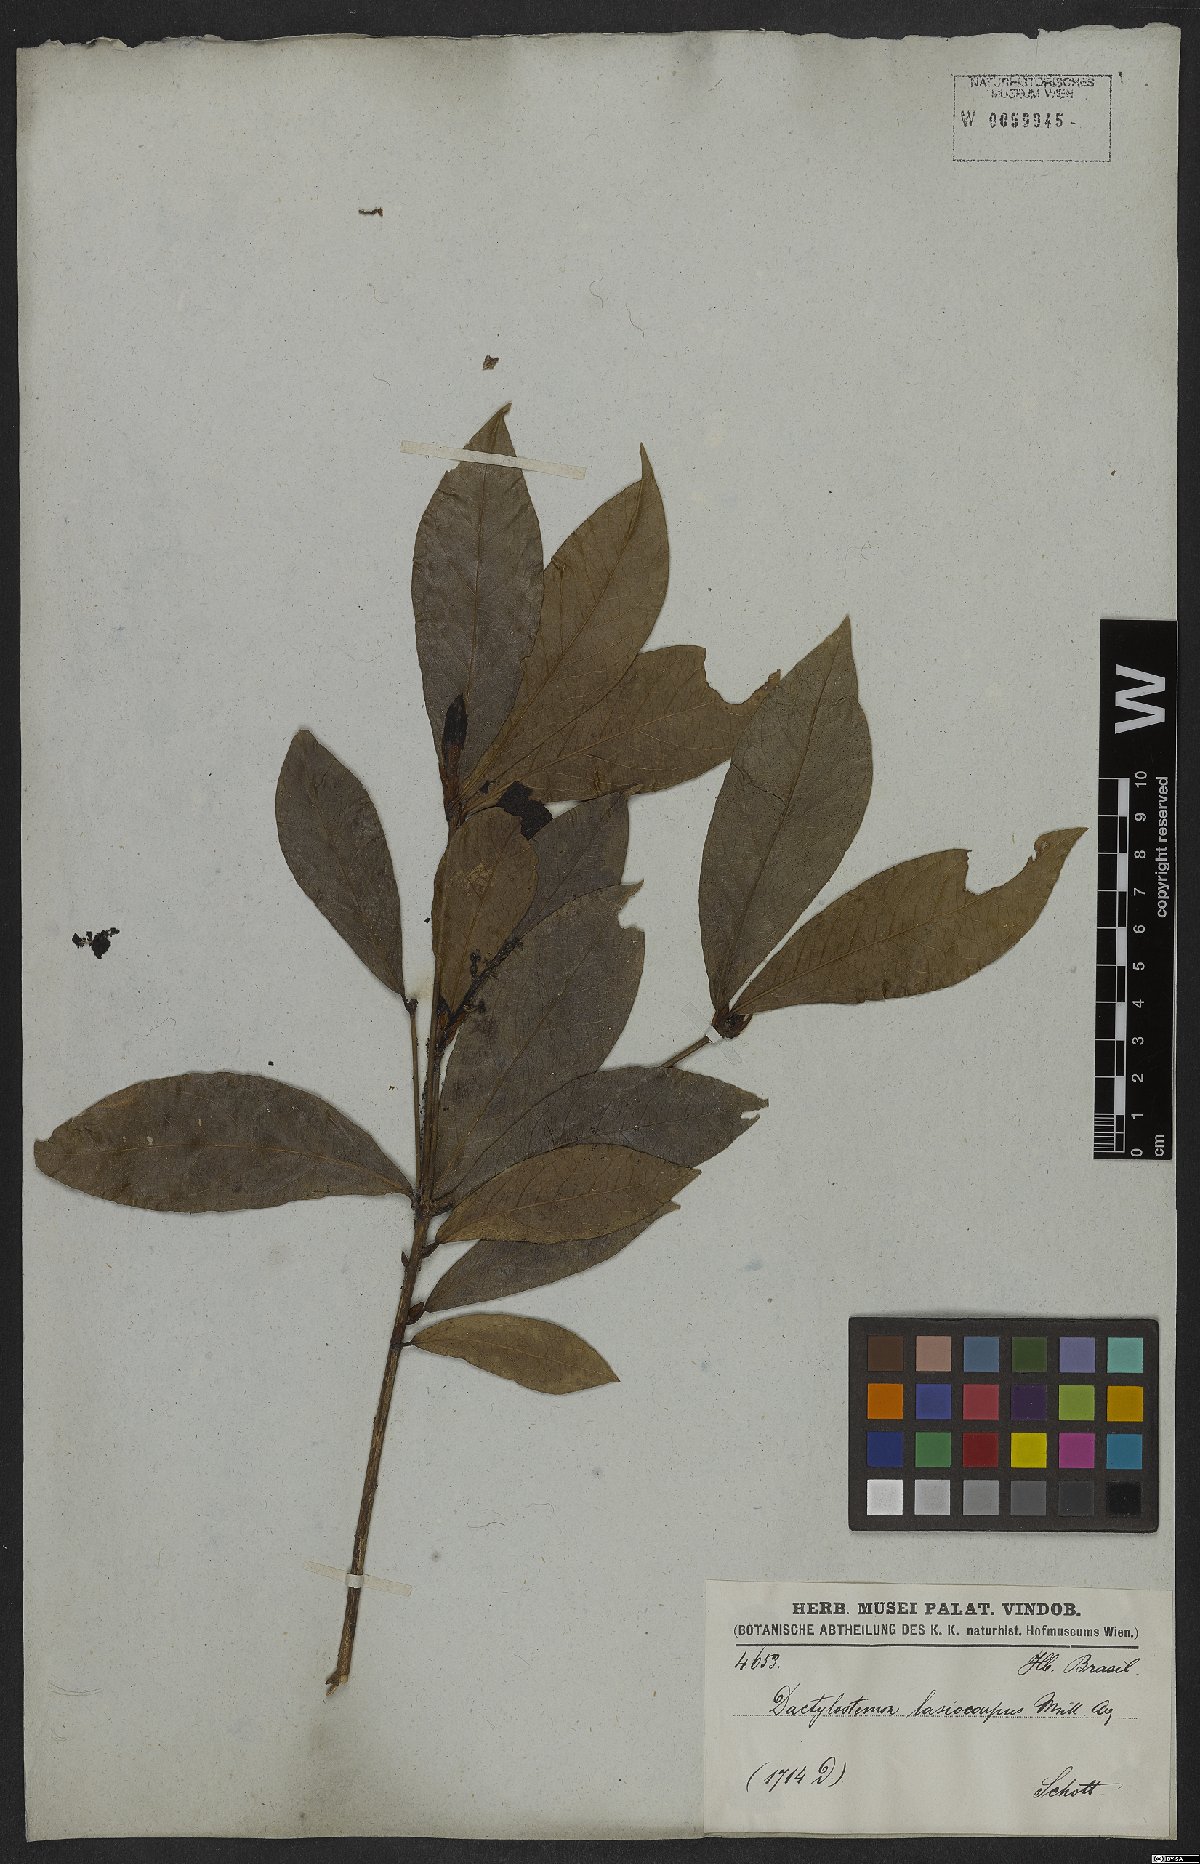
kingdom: Plantae
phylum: Tracheophyta
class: Magnoliopsida
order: Malpighiales
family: Euphorbiaceae
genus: Actinostemon
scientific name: Actinostemon lasiocarpus
